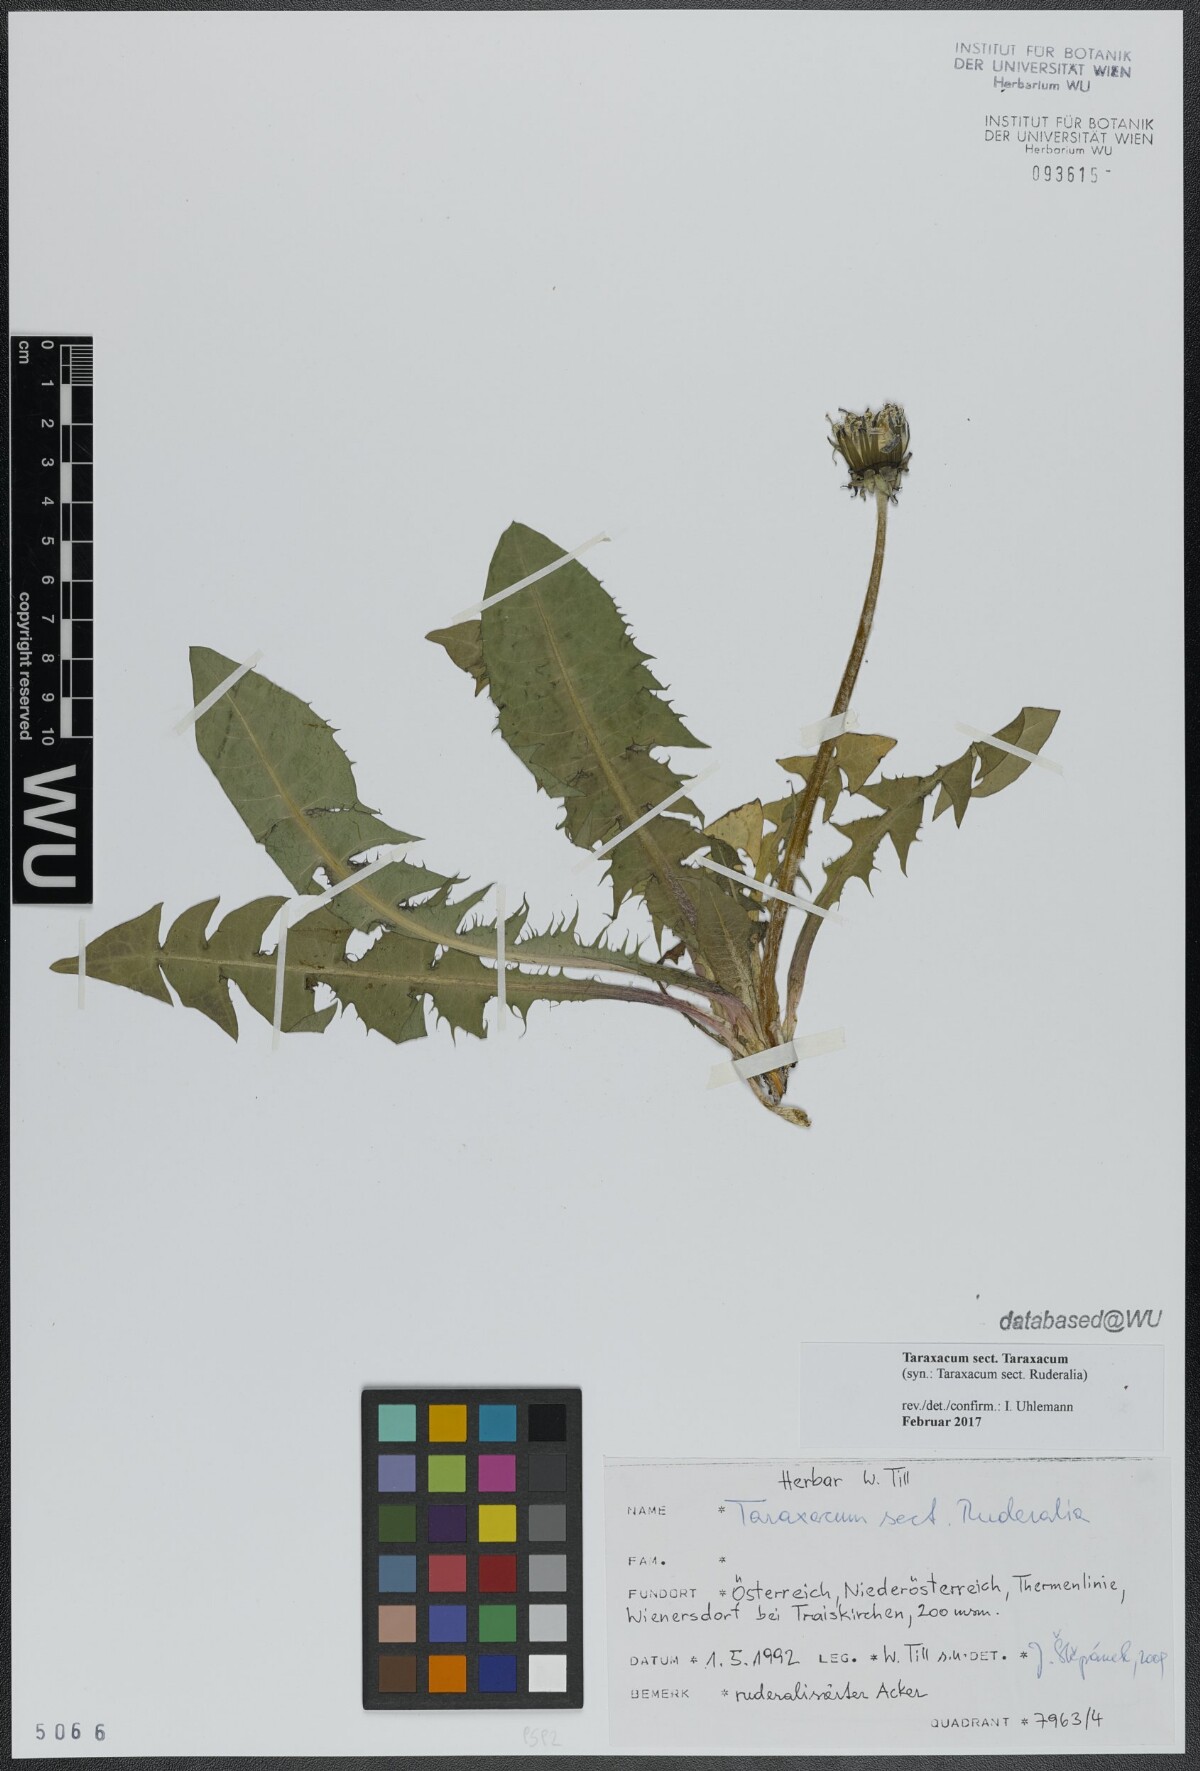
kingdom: Plantae
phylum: Tracheophyta
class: Magnoliopsida
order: Asterales
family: Asteraceae
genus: Taraxacum
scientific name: Taraxacum
